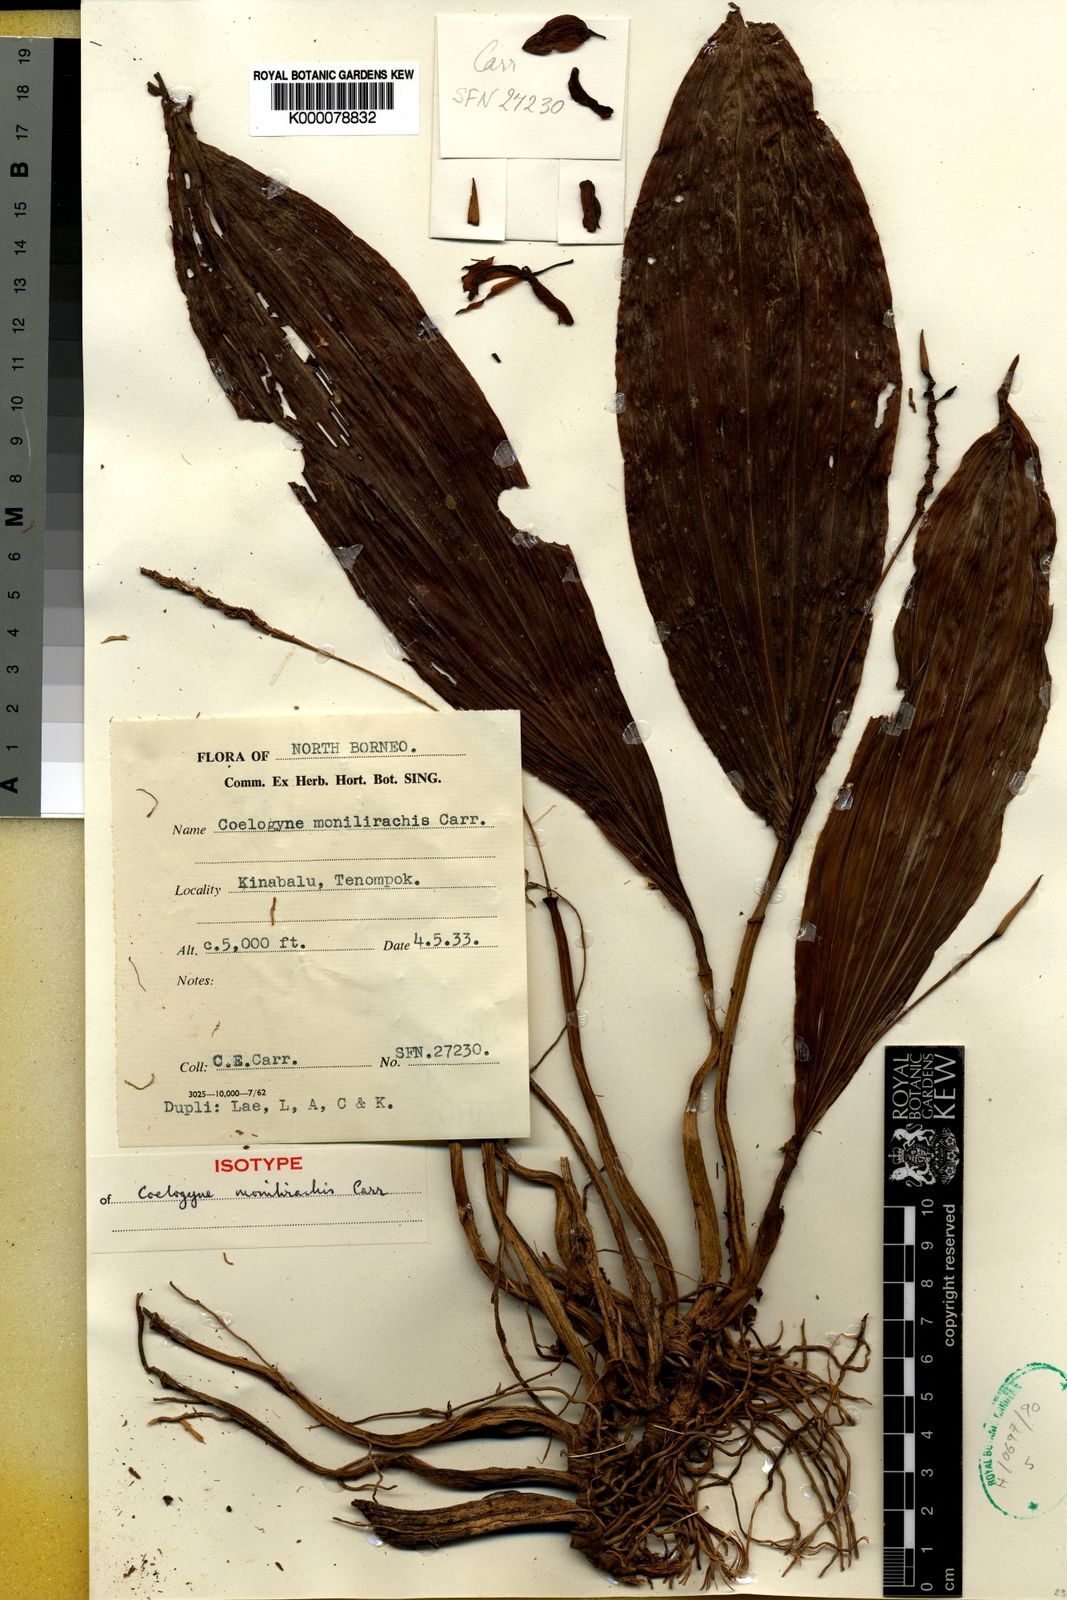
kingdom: Plantae
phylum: Tracheophyta
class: Liliopsida
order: Asparagales
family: Orchidaceae
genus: Coelogyne
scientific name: Coelogyne monilirachis
